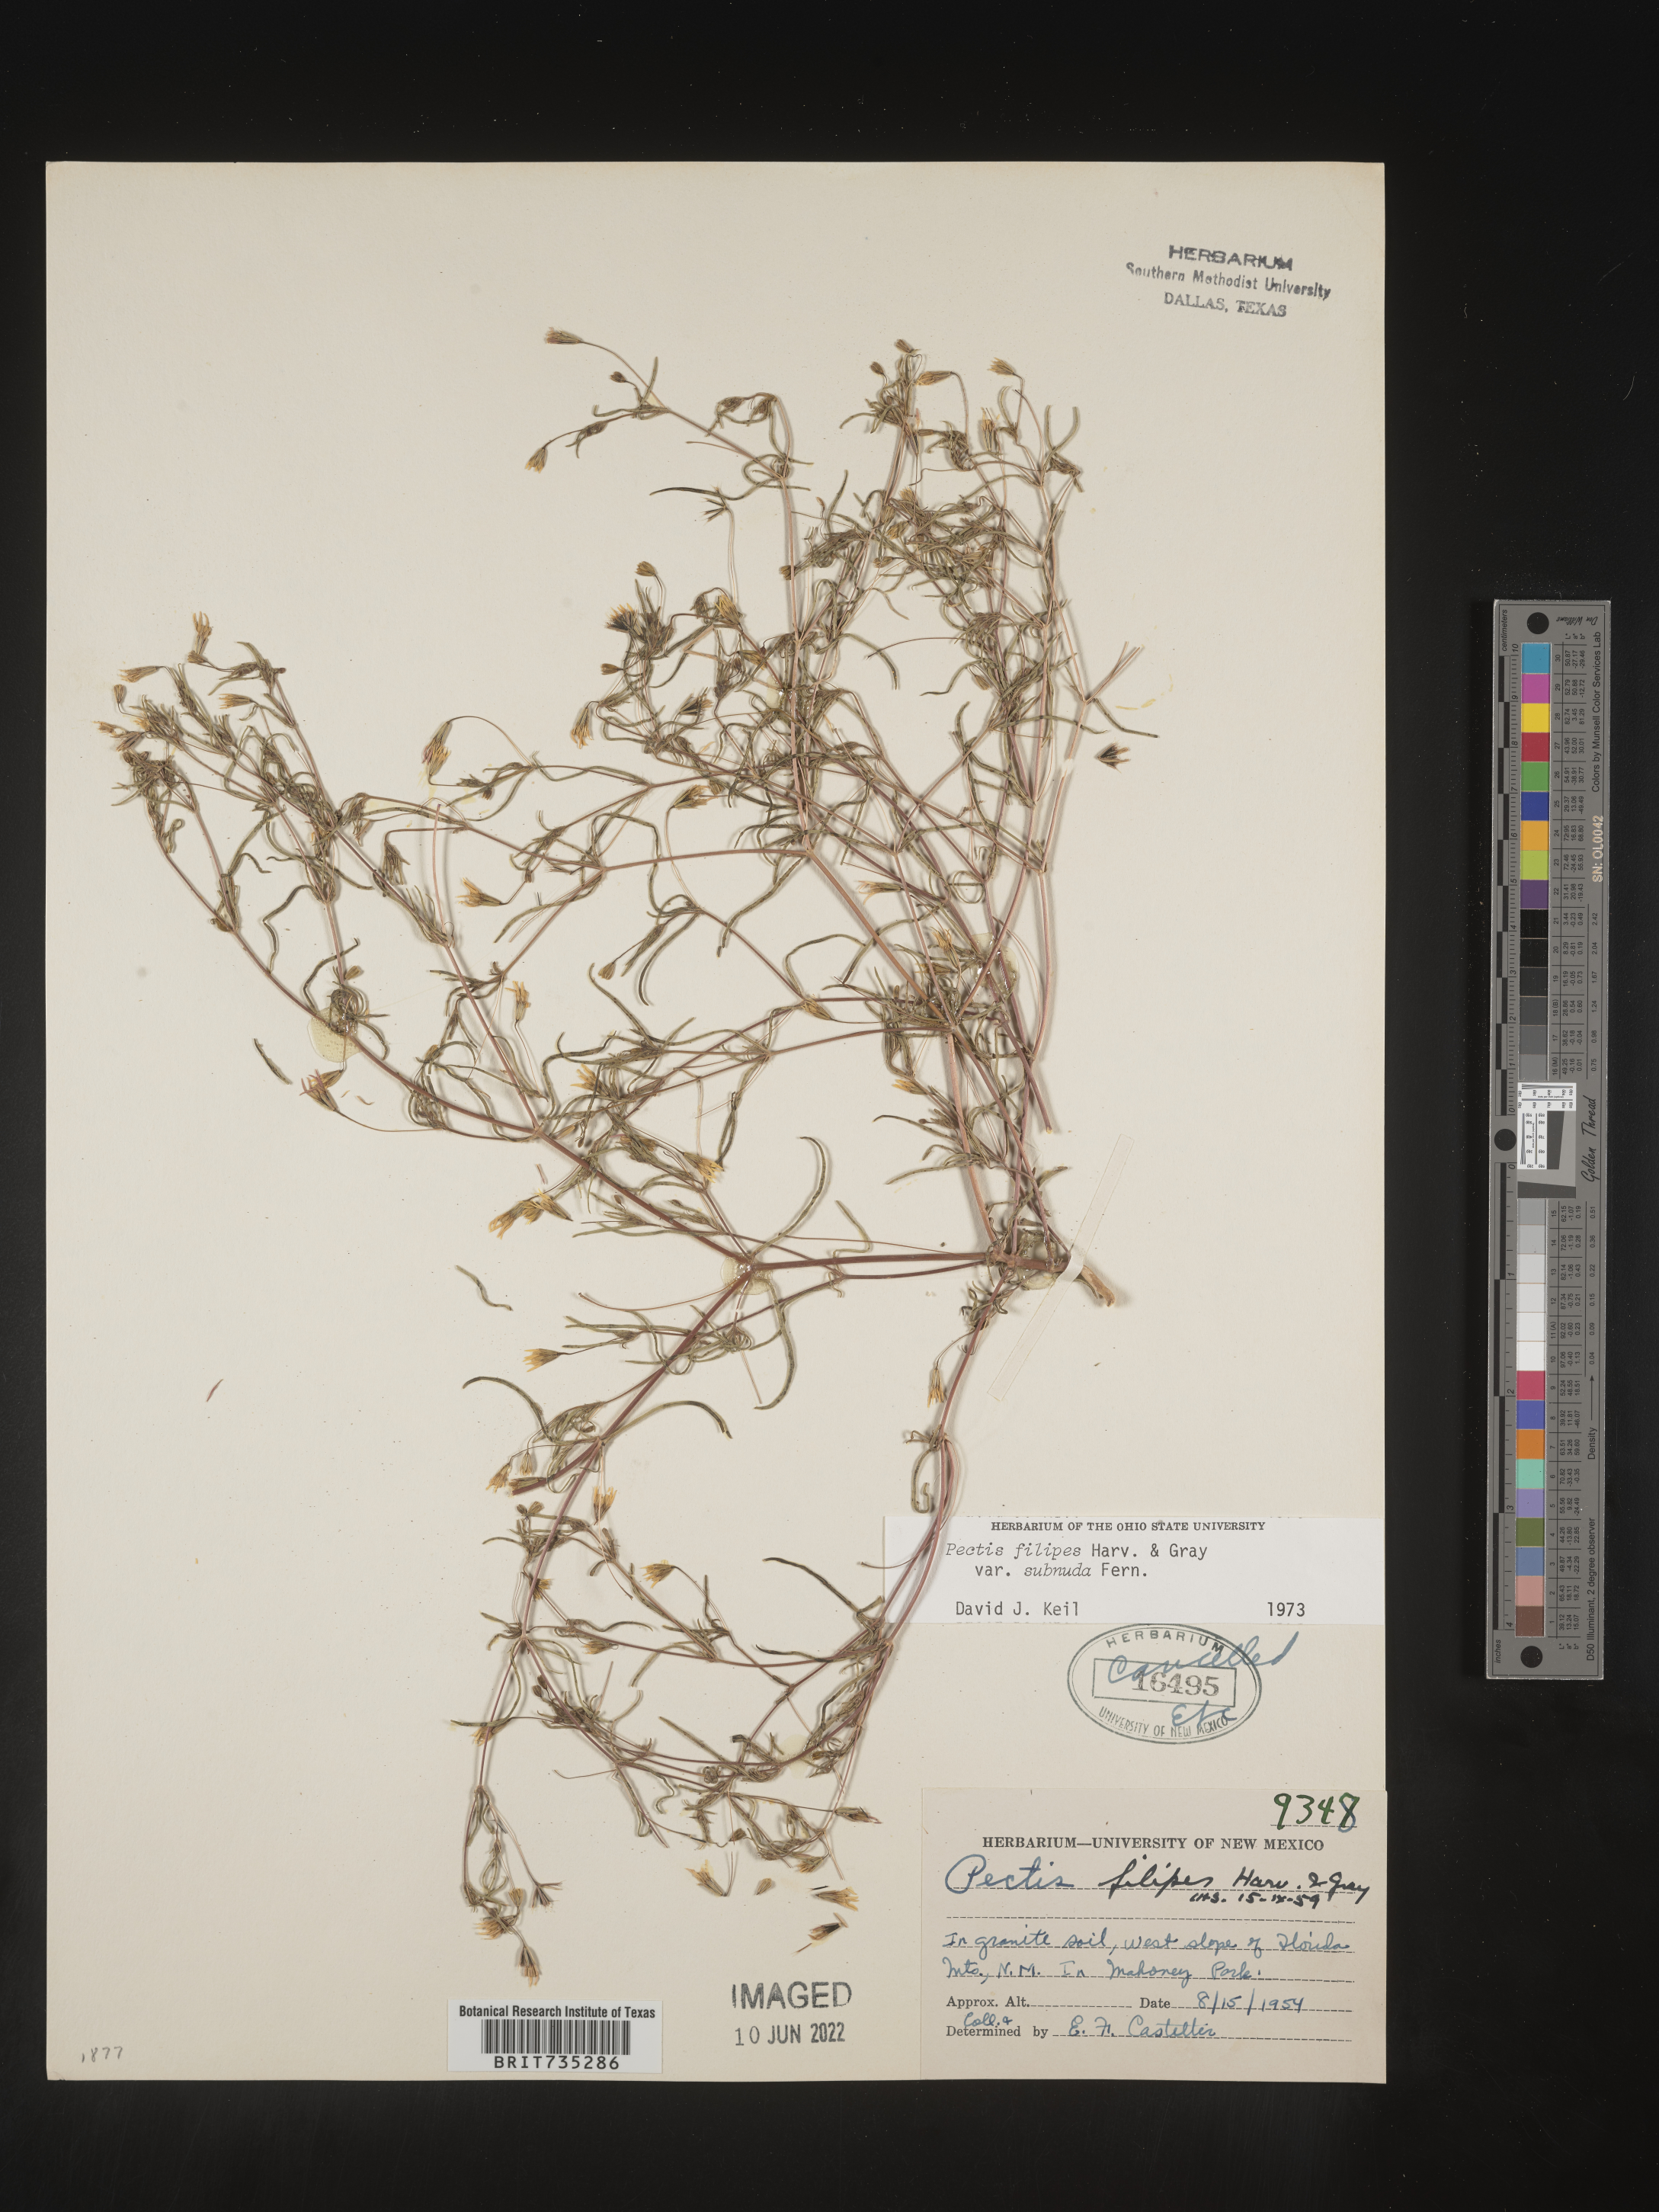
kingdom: Plantae
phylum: Tracheophyta
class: Magnoliopsida
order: Asterales
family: Asteraceae
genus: Pectis
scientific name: Pectis filipes
